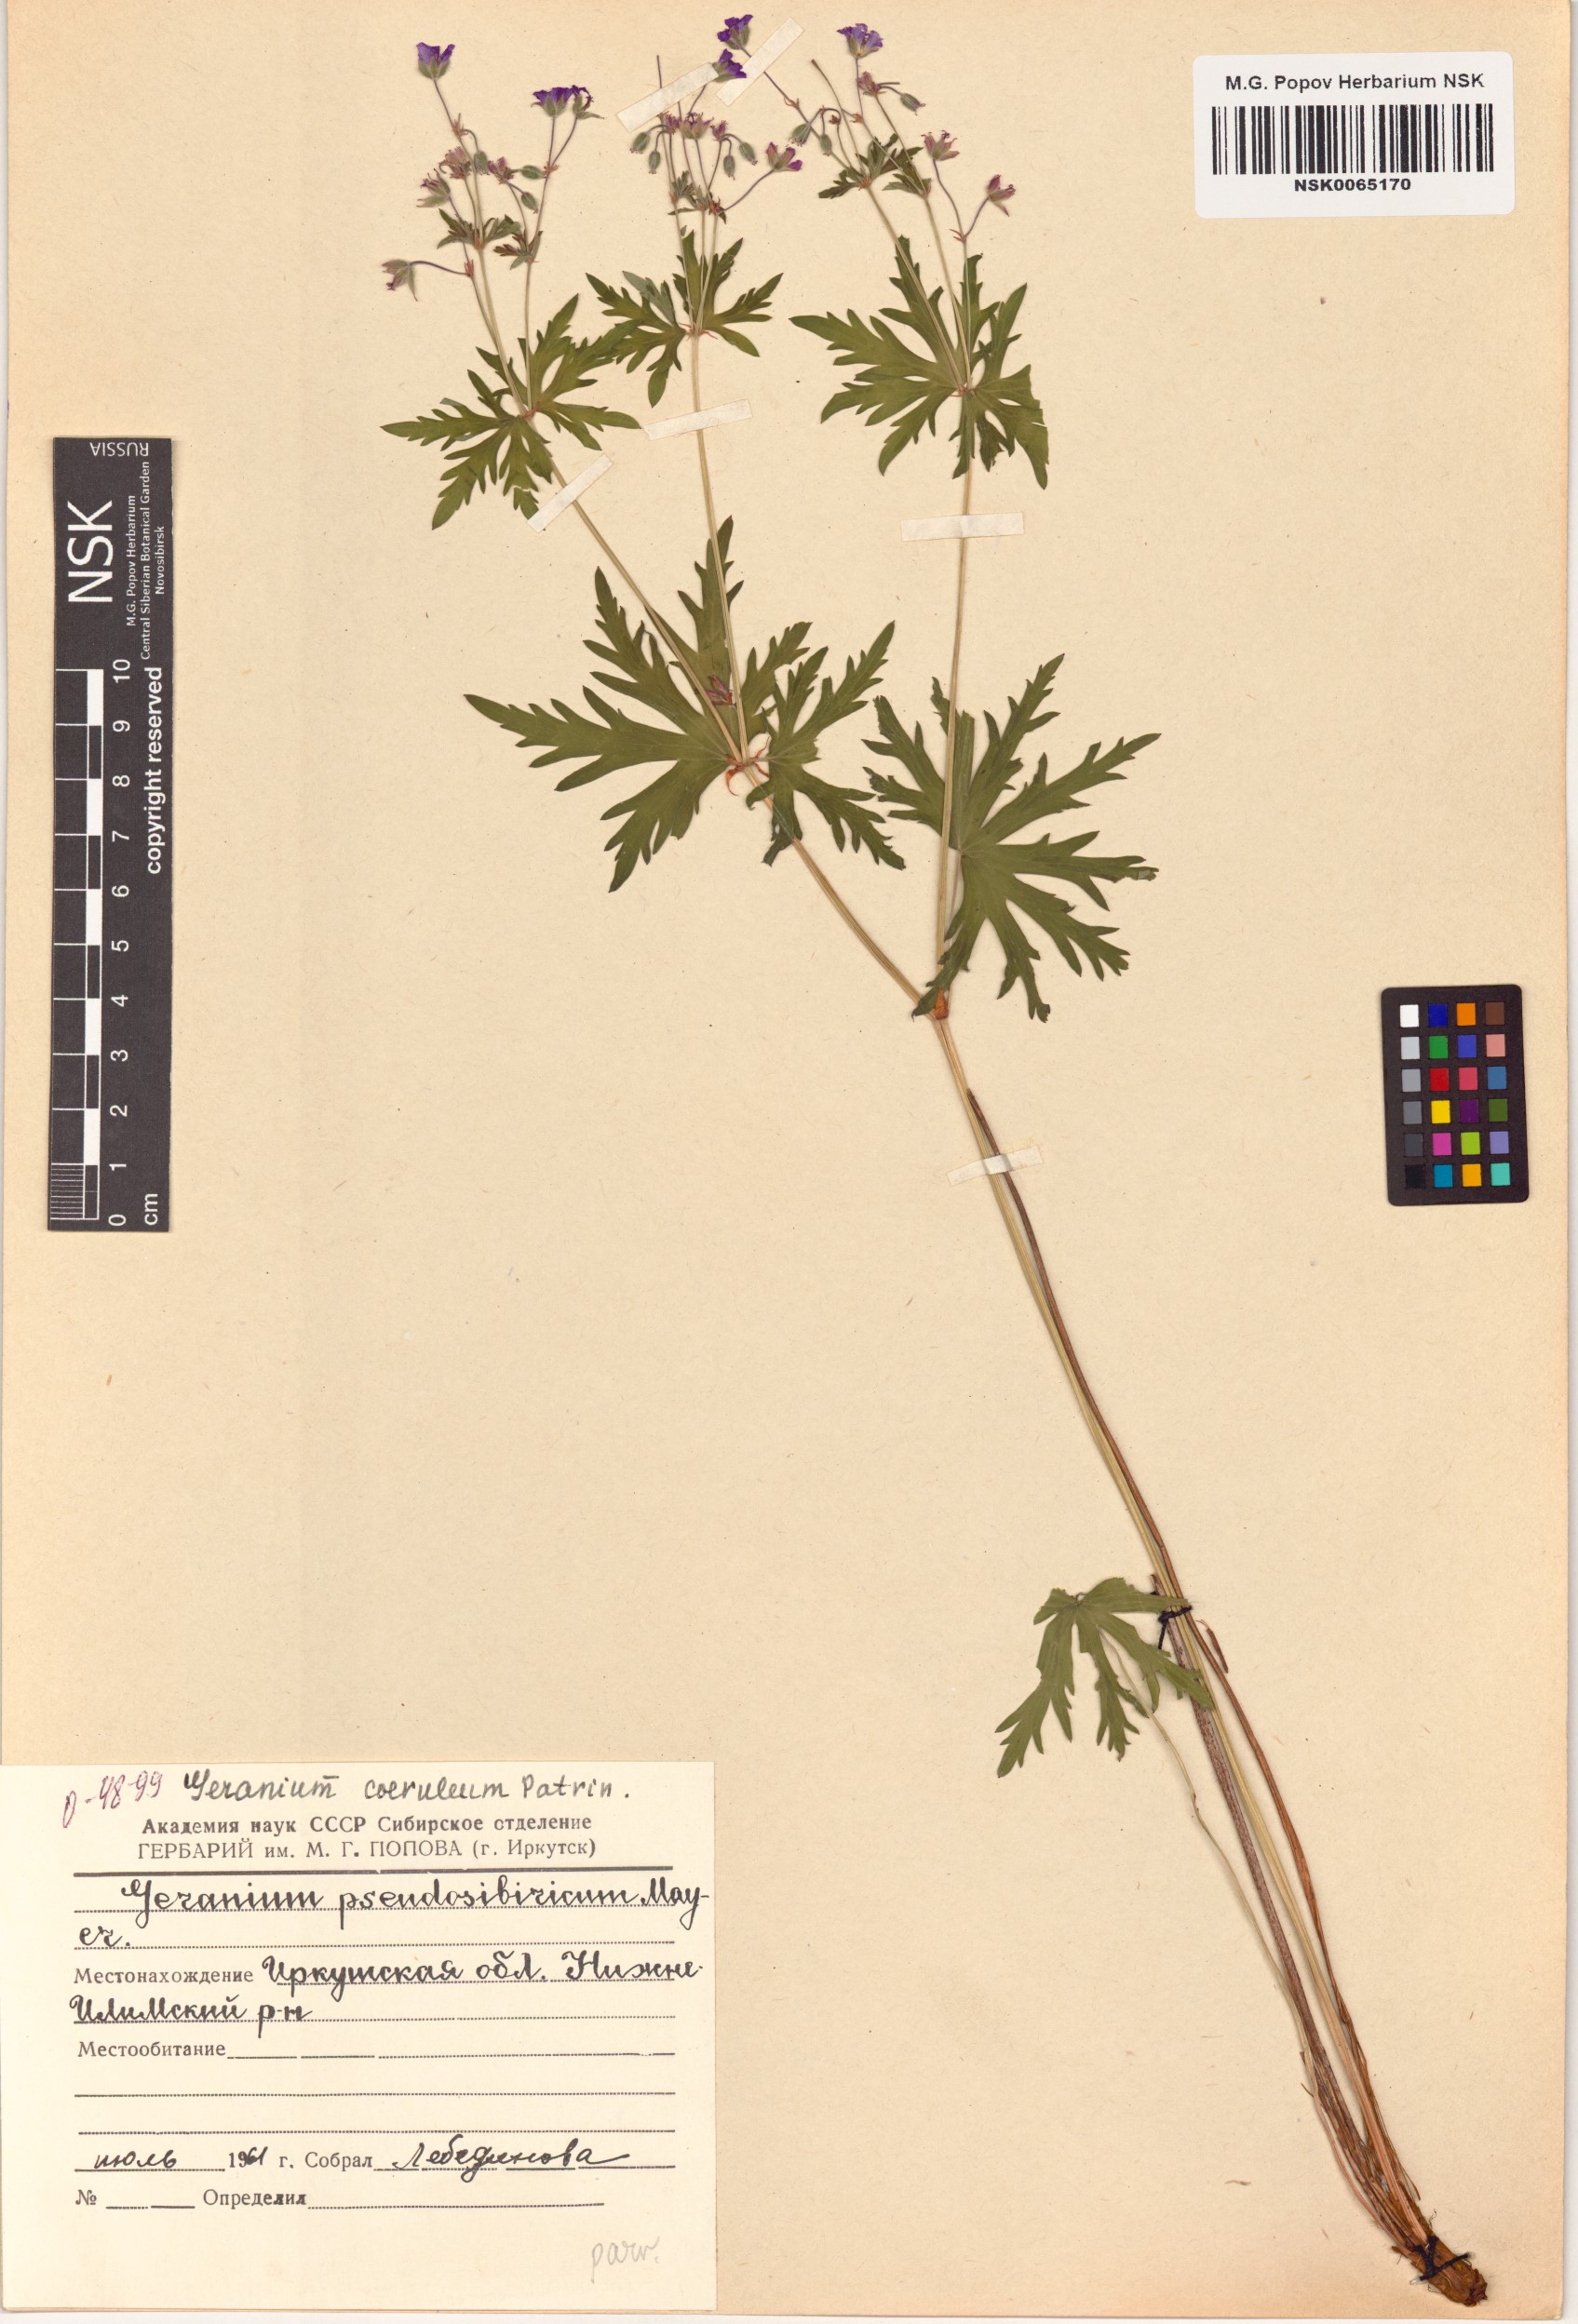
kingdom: Plantae
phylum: Tracheophyta
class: Magnoliopsida
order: Geraniales
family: Geraniaceae
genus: Geranium
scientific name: Geranium pseudosibiricum
